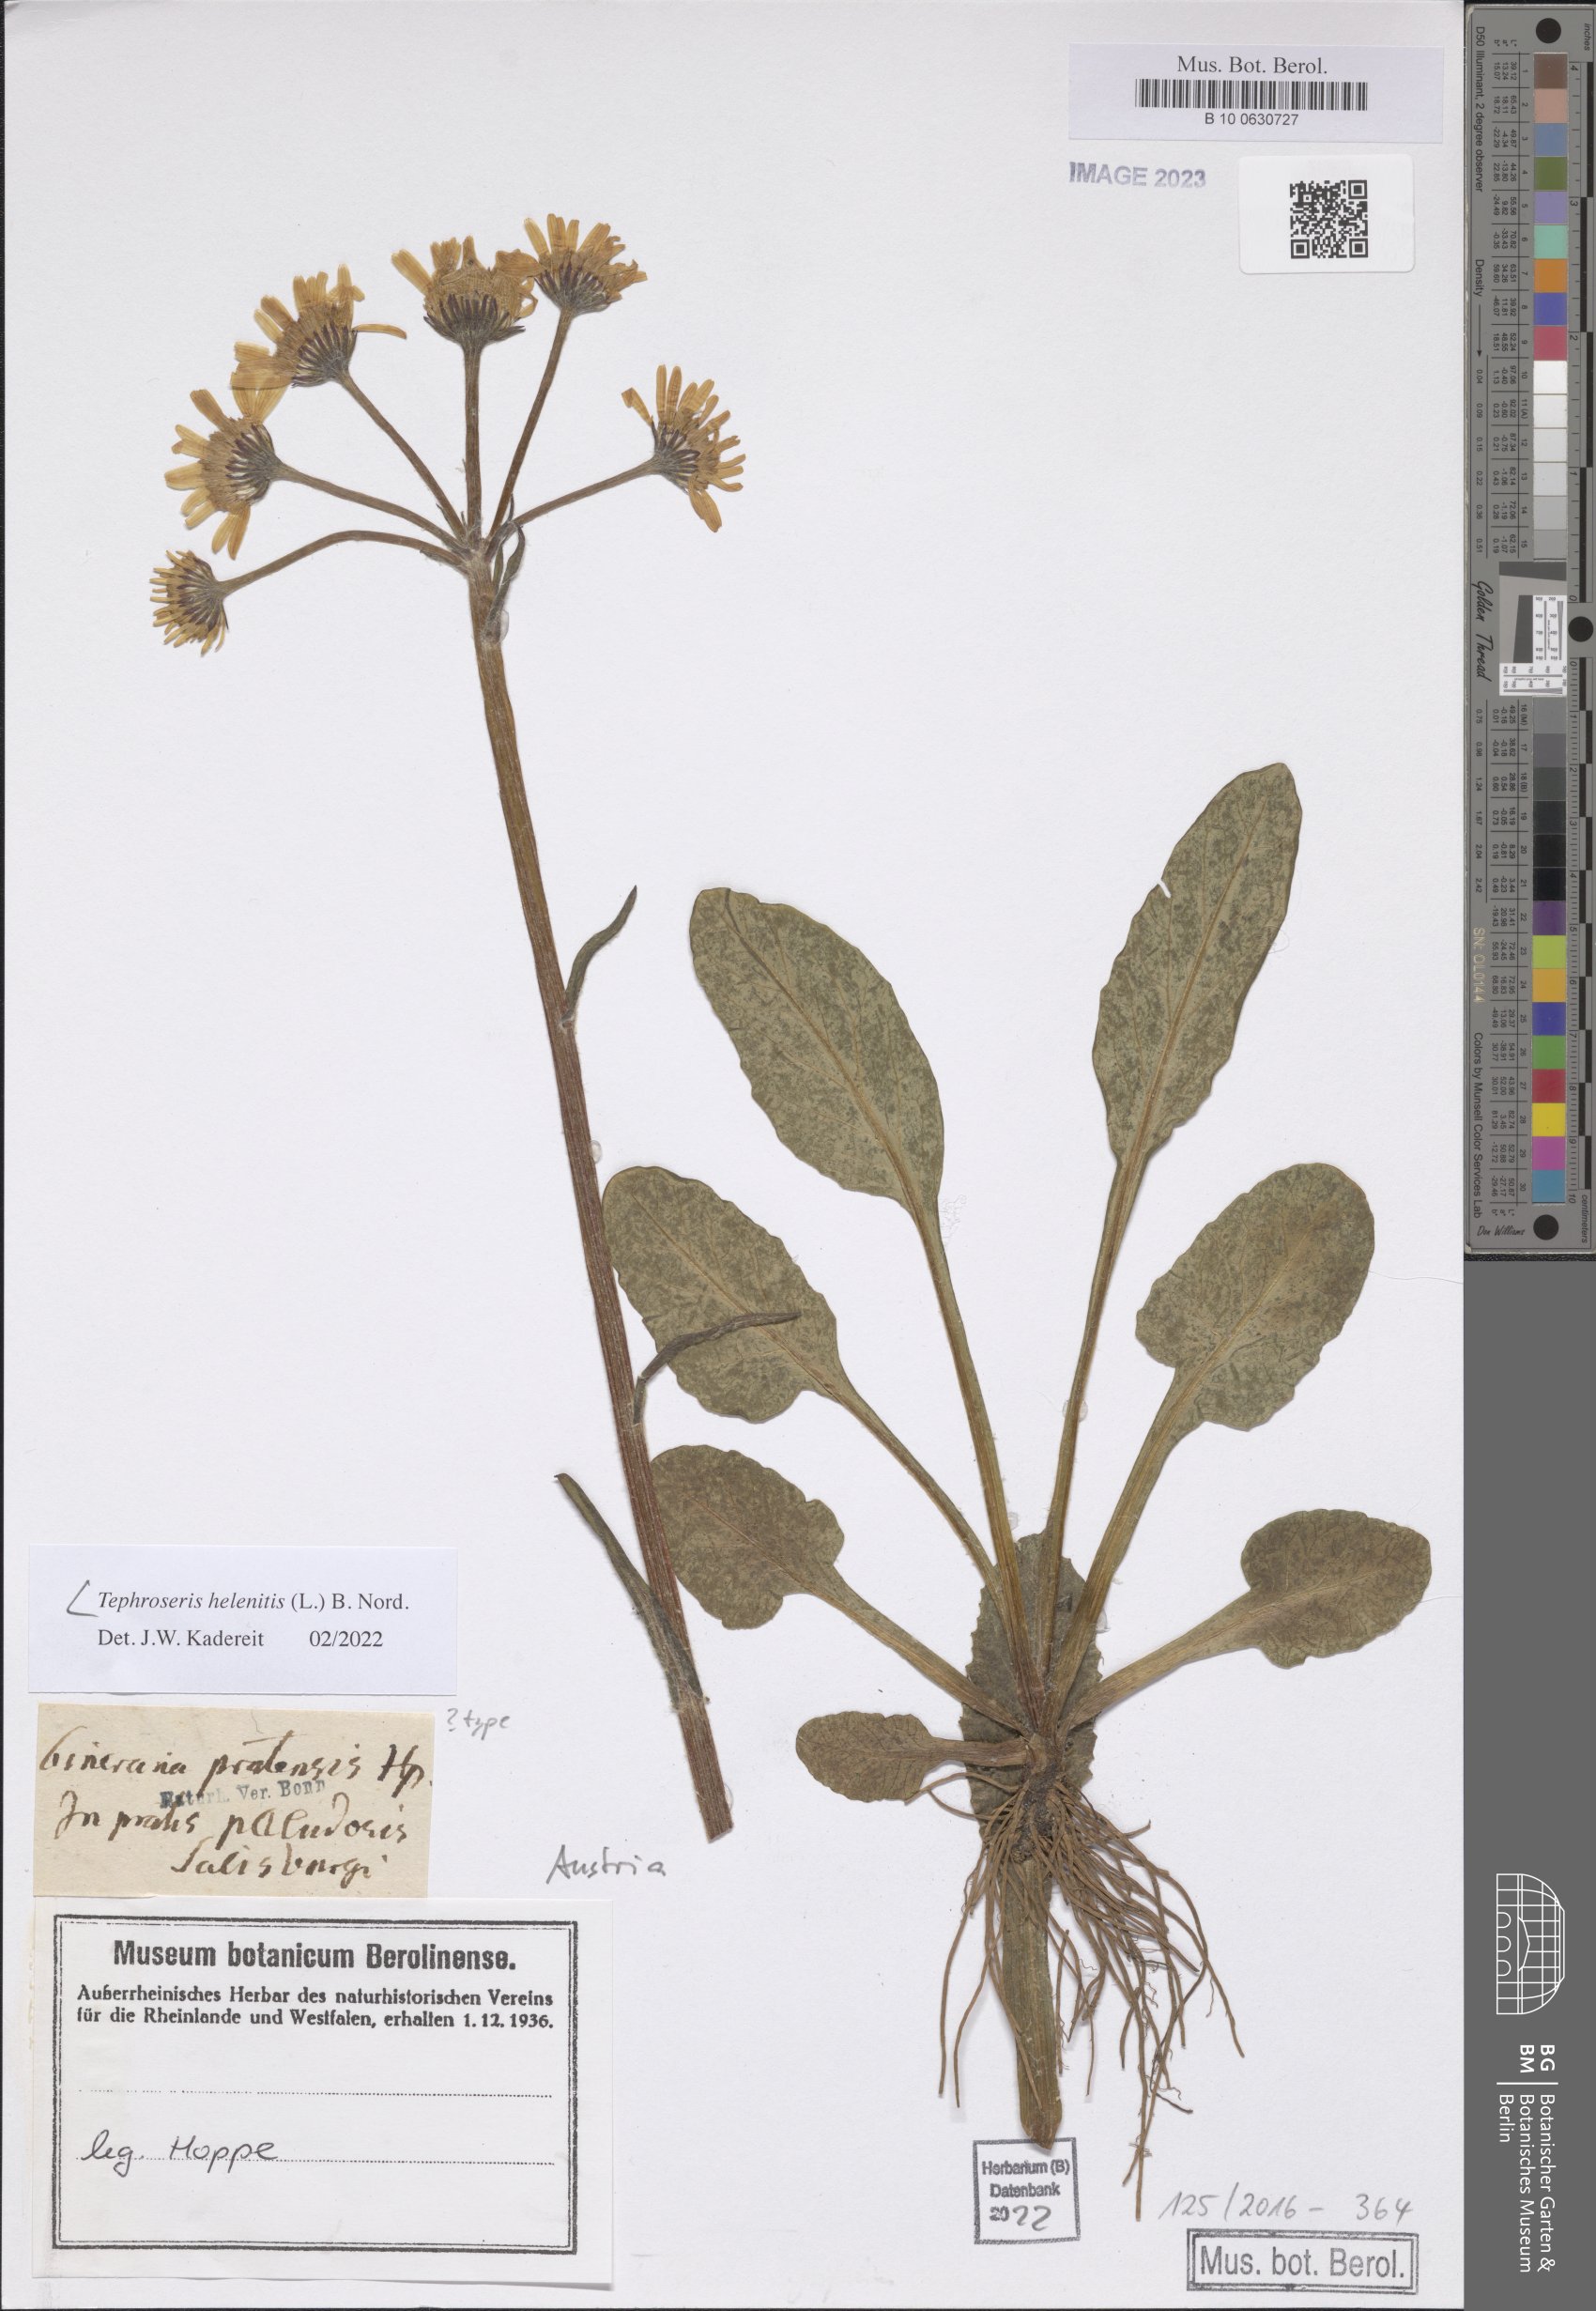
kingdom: Plantae
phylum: Tracheophyta
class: Magnoliopsida
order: Asterales
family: Asteraceae
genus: Tephroseris
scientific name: Tephroseris
